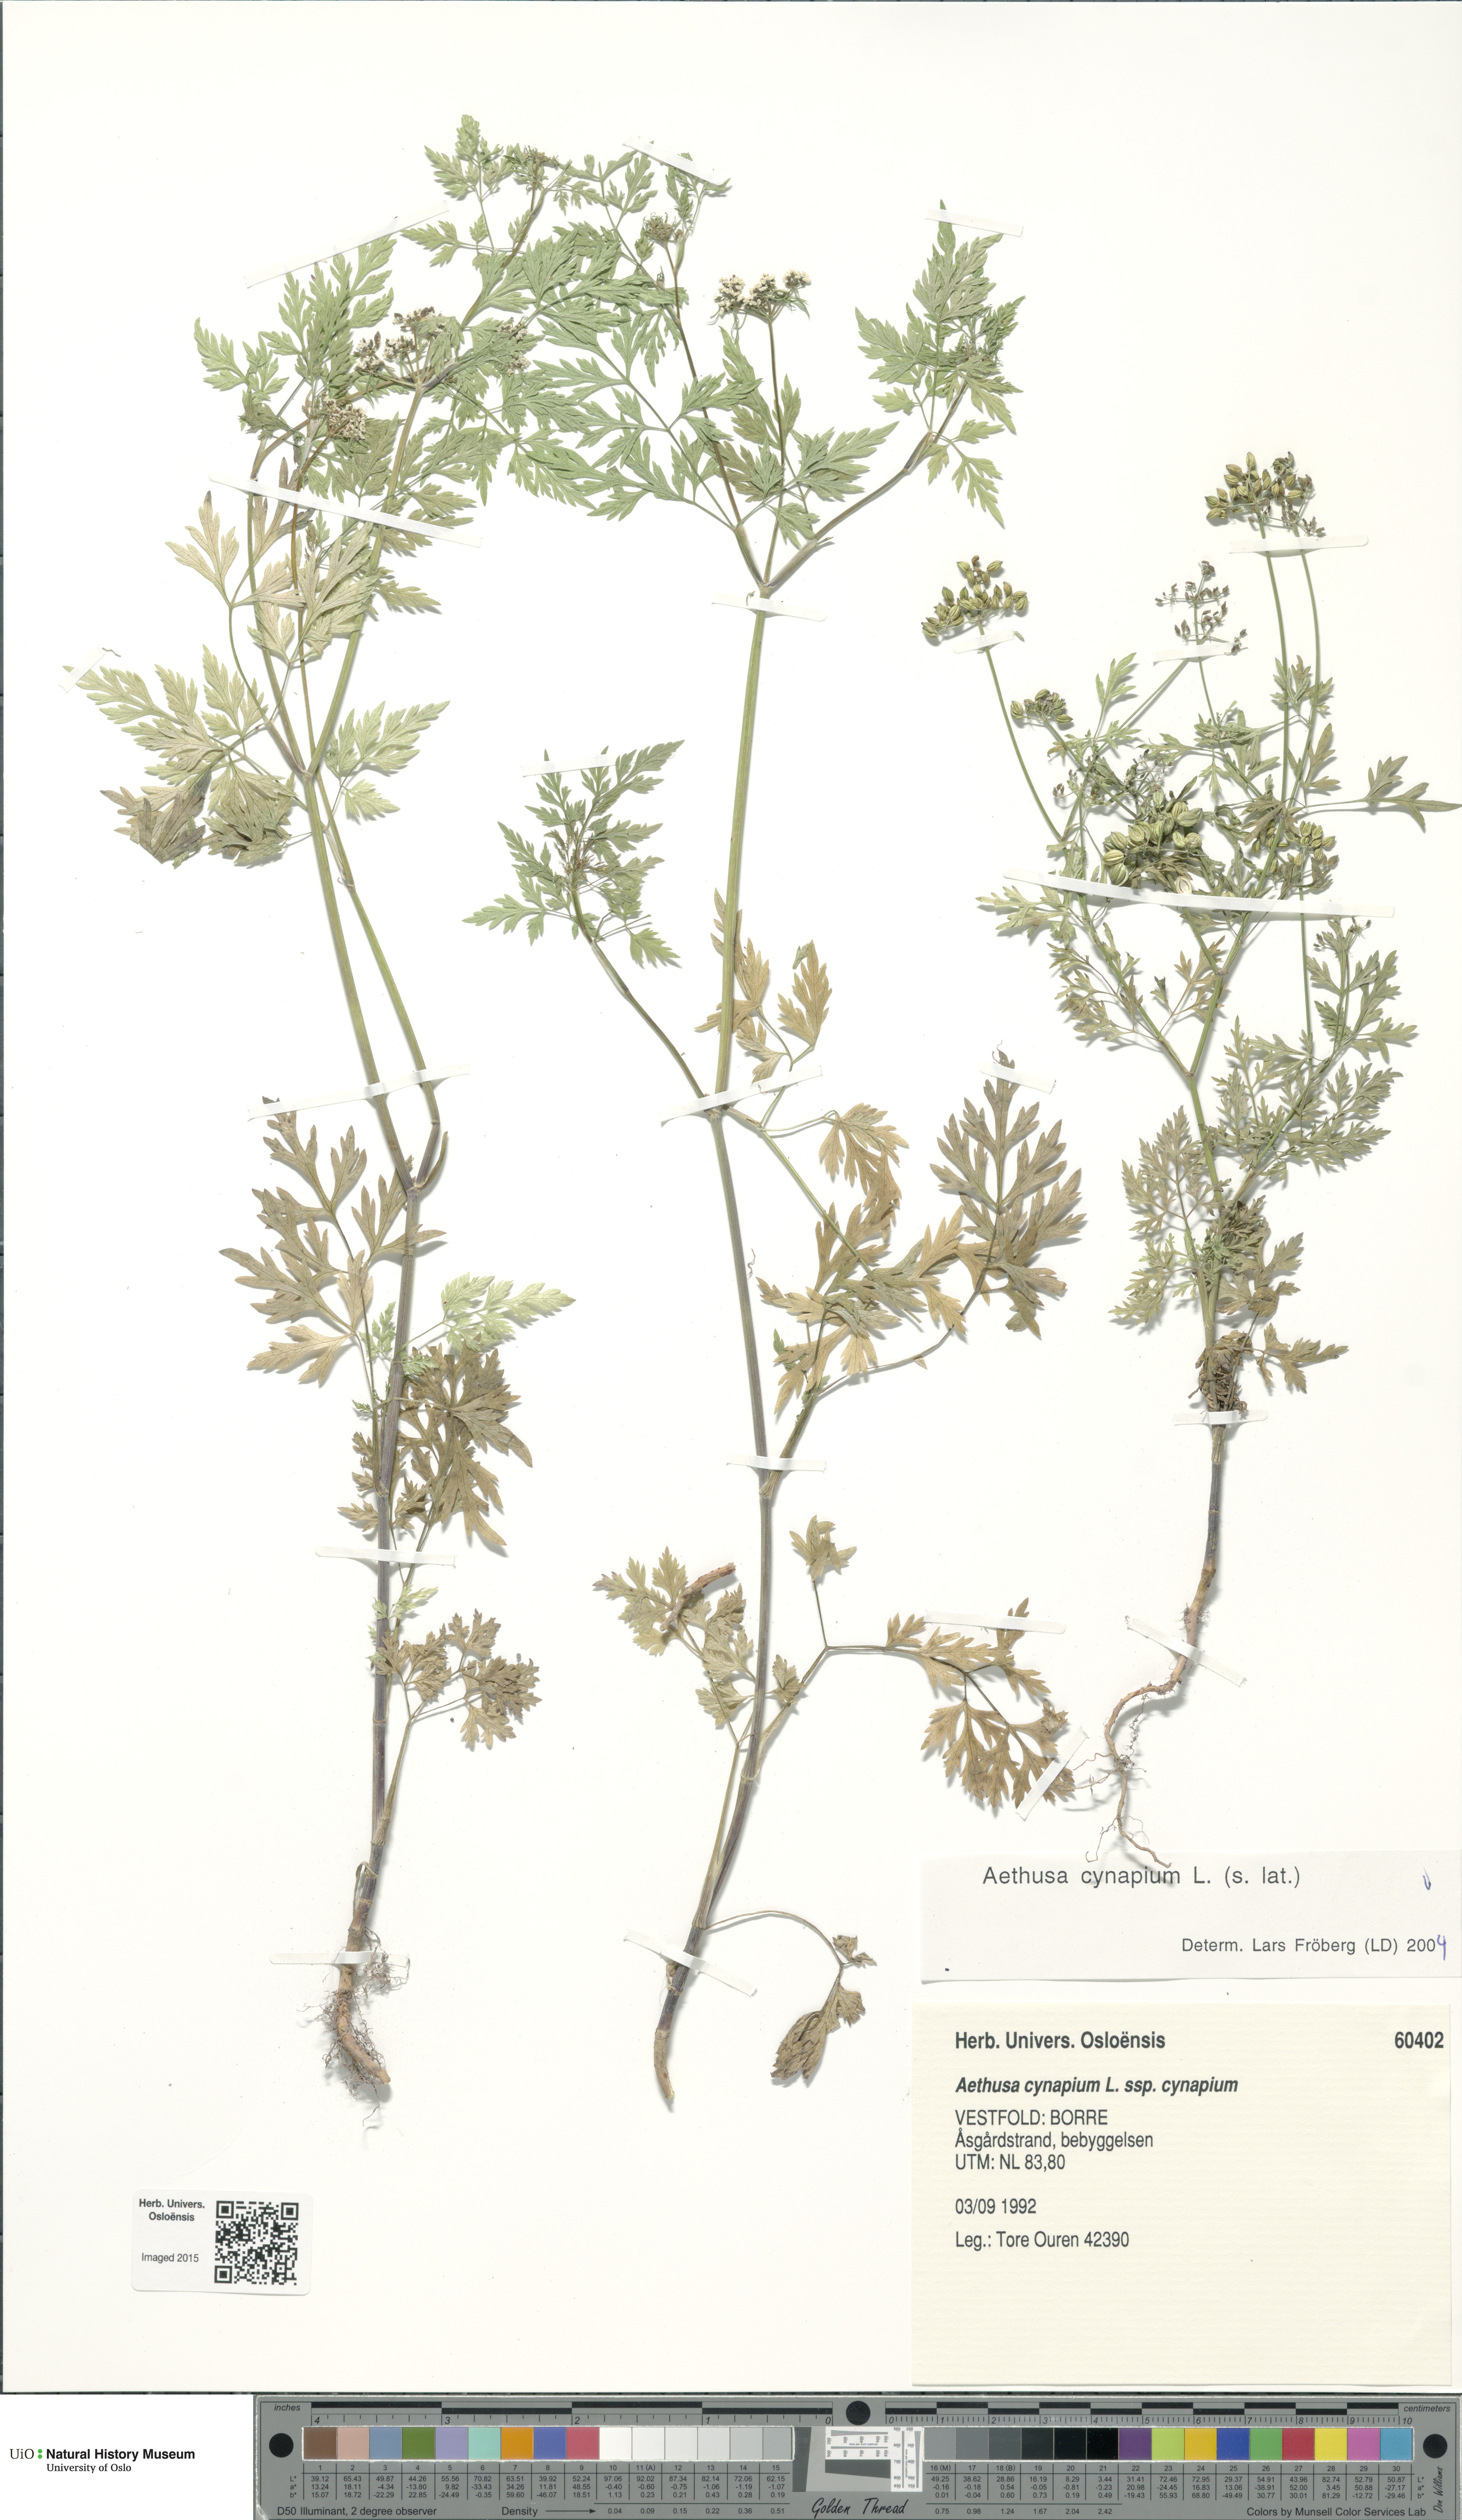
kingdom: Plantae
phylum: Tracheophyta
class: Magnoliopsida
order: Apiales
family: Apiaceae
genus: Aethusa
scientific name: Aethusa cynapium
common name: Fool's parsley
